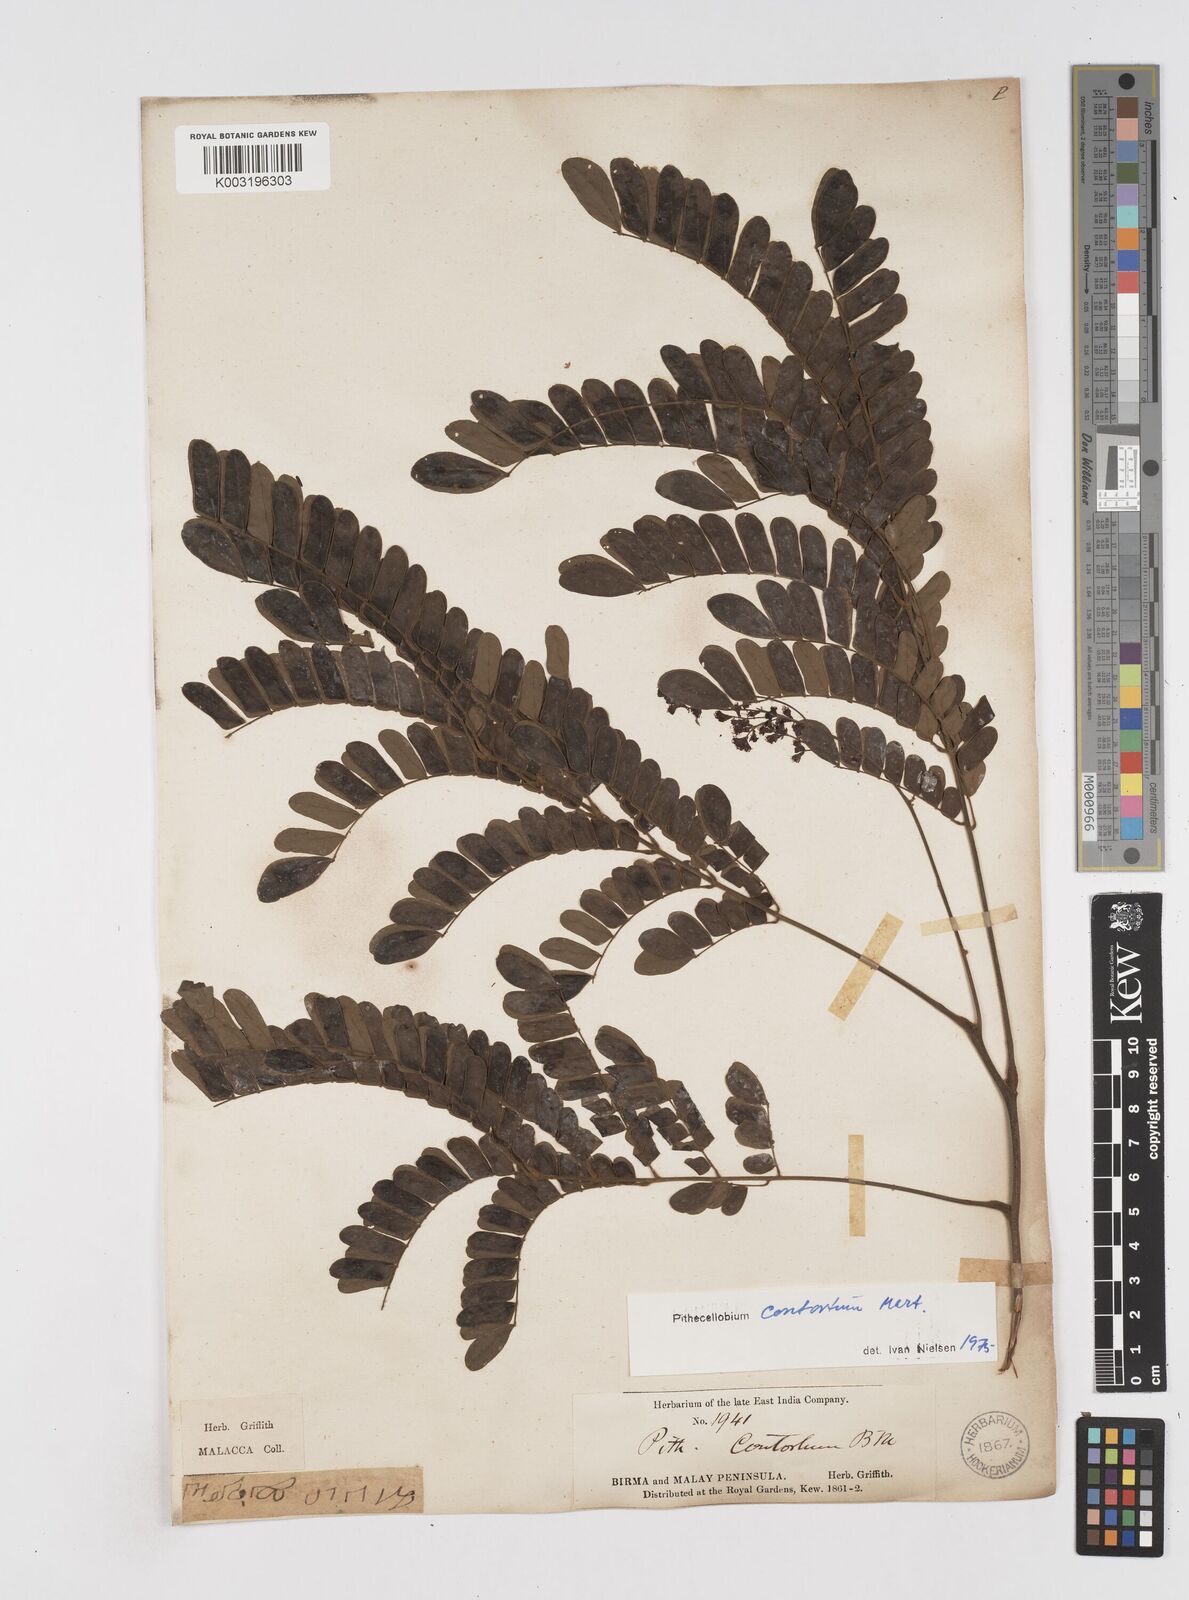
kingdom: Plantae
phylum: Tracheophyta
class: Magnoliopsida
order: Fabales
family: Fabaceae
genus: Archidendron
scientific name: Archidendron contortum
